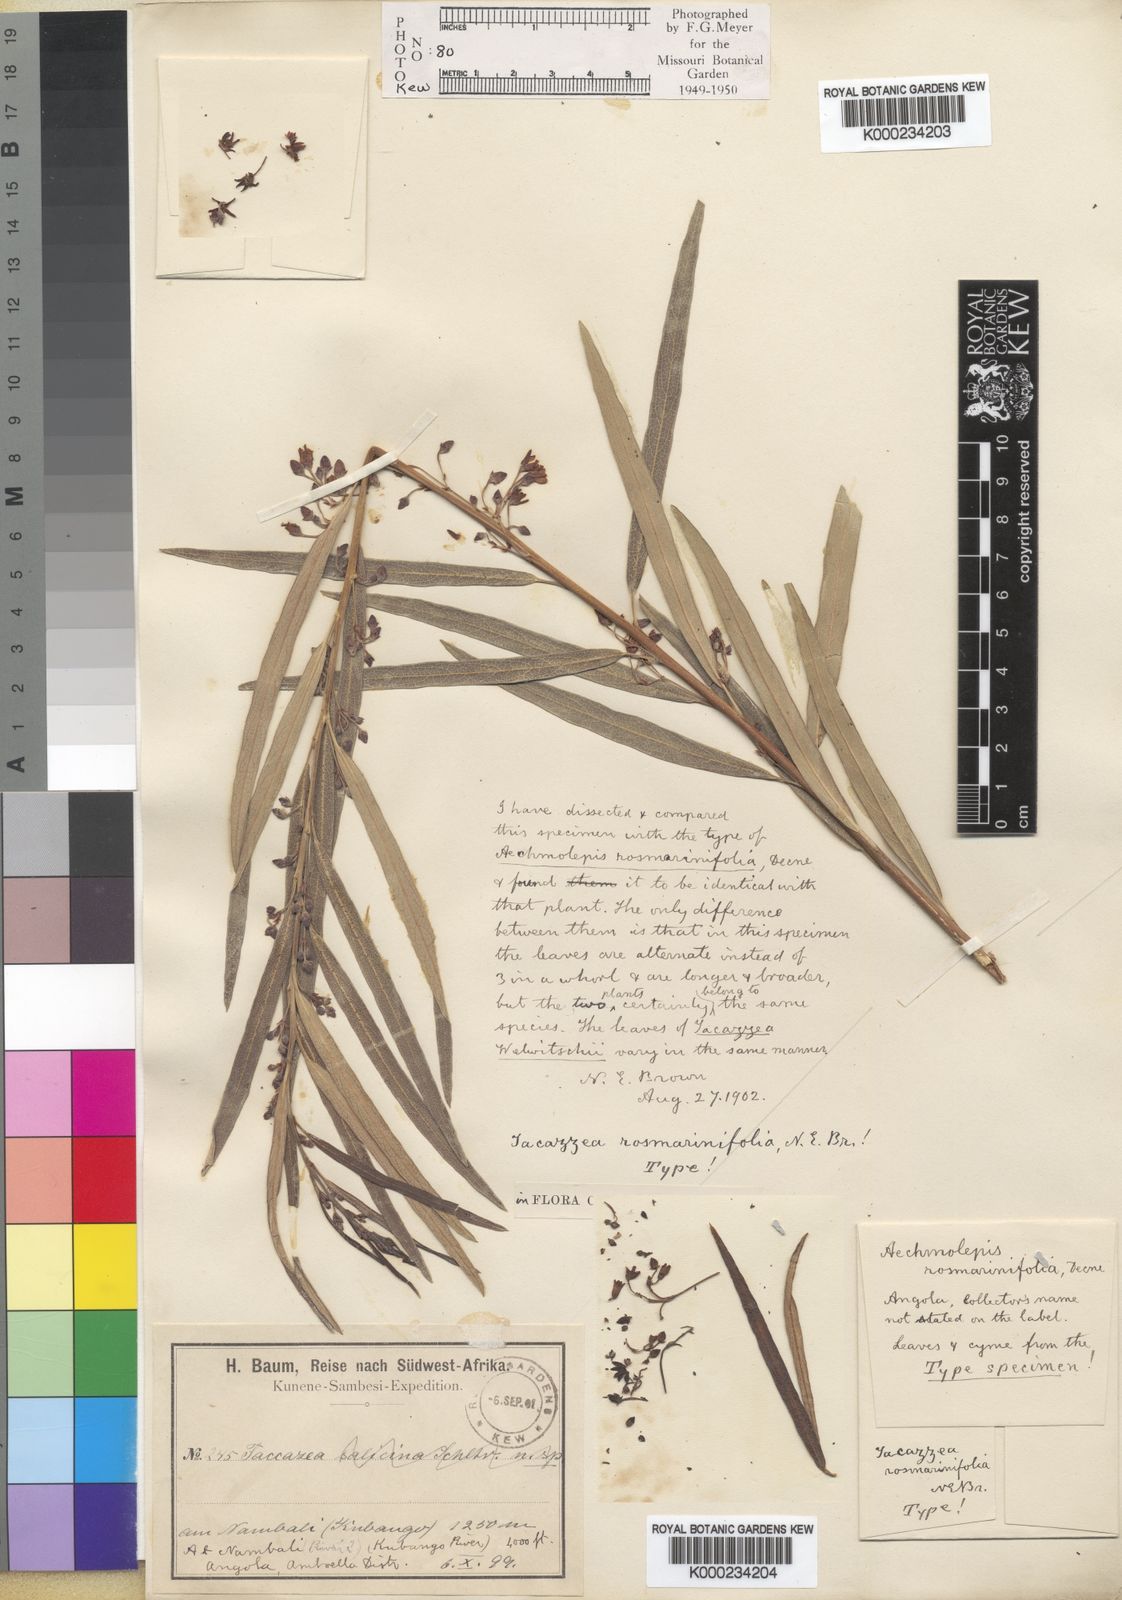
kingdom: Plantae
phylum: Tracheophyta
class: Magnoliopsida
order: Gentianales
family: Apocynaceae
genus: Tacazzea
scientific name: Tacazzea rosmarinifolia
